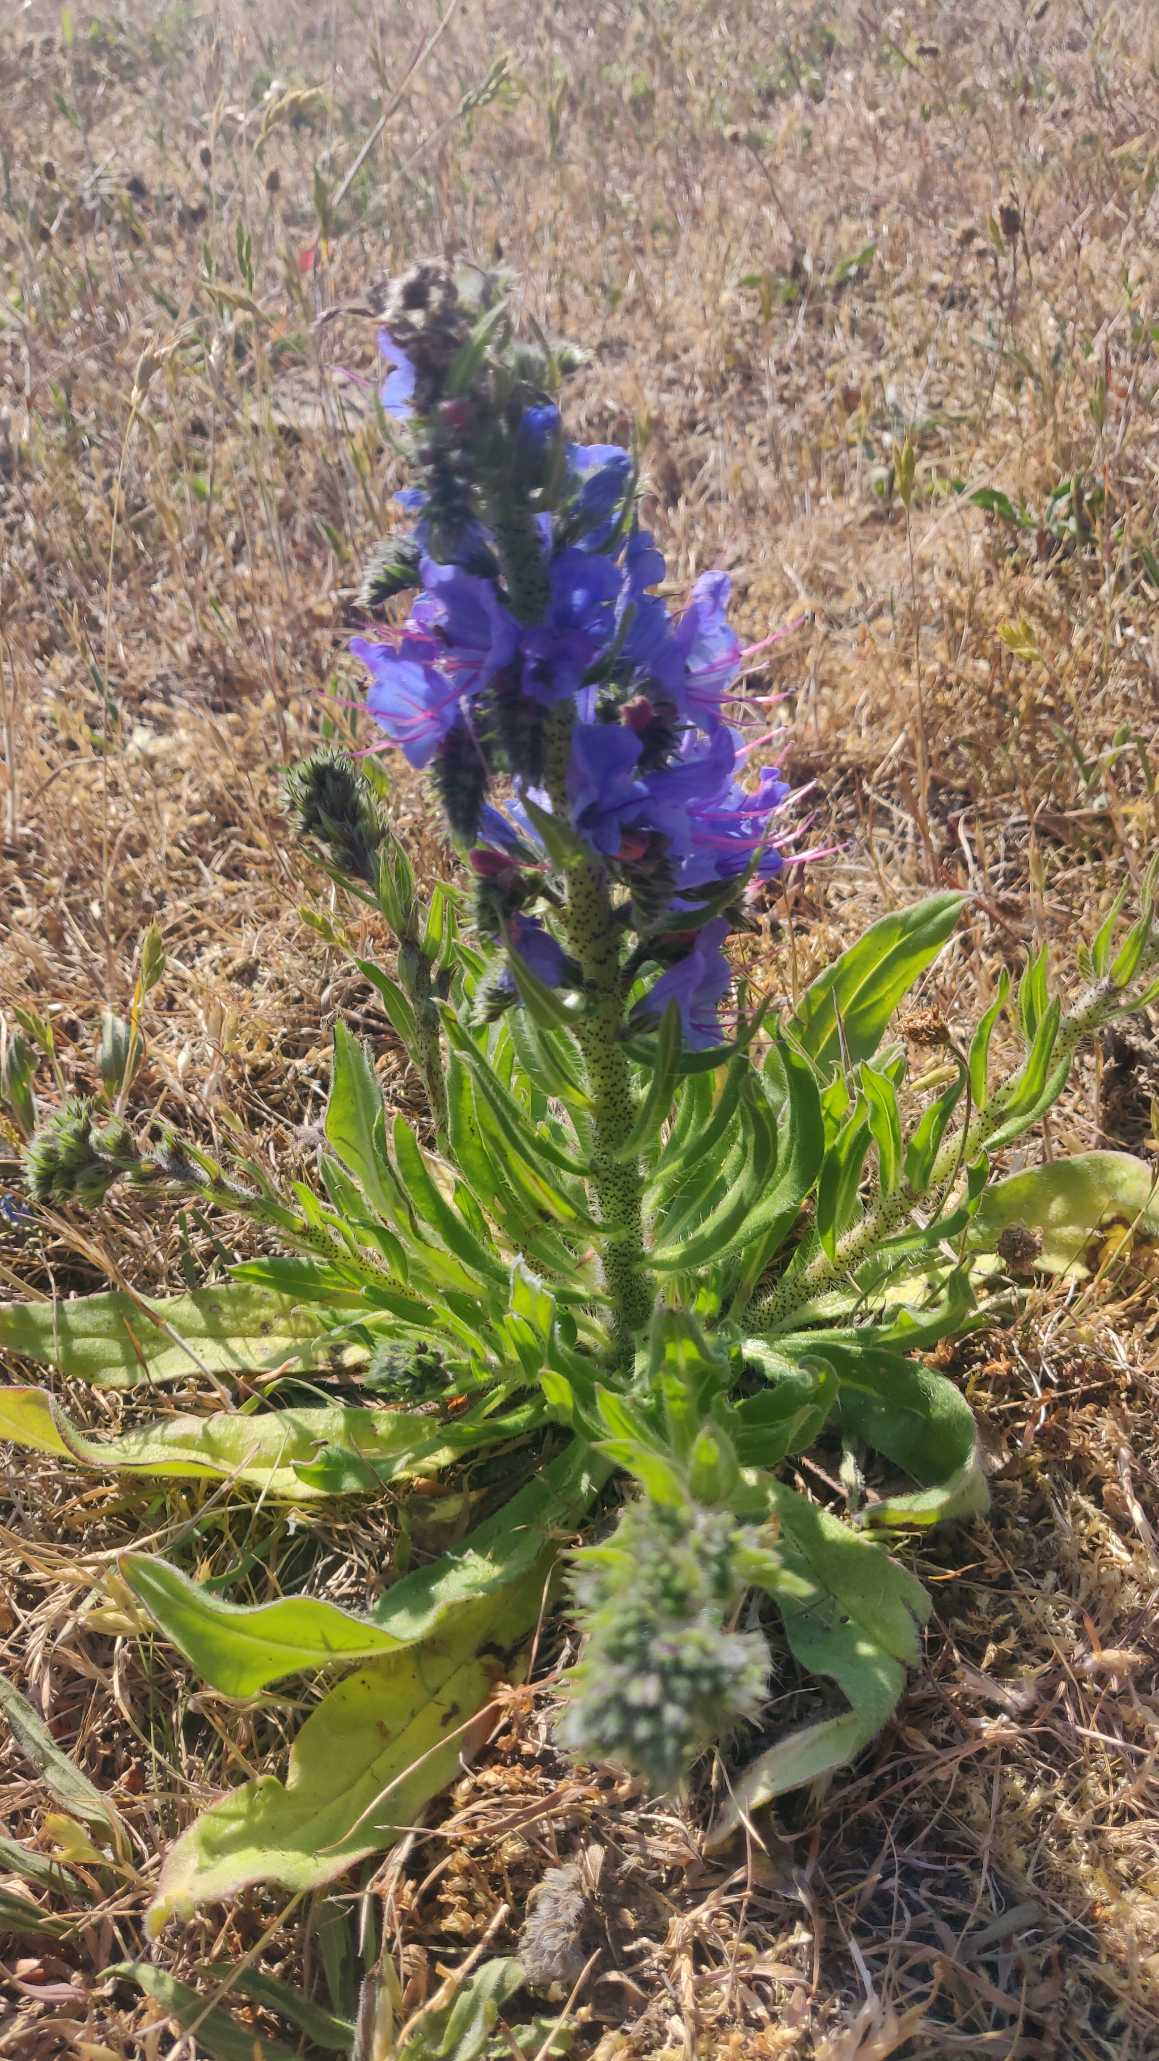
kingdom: Plantae
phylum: Tracheophyta
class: Magnoliopsida
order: Boraginales
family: Boraginaceae
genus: Echium
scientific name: Echium vulgare
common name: Slangehoved
